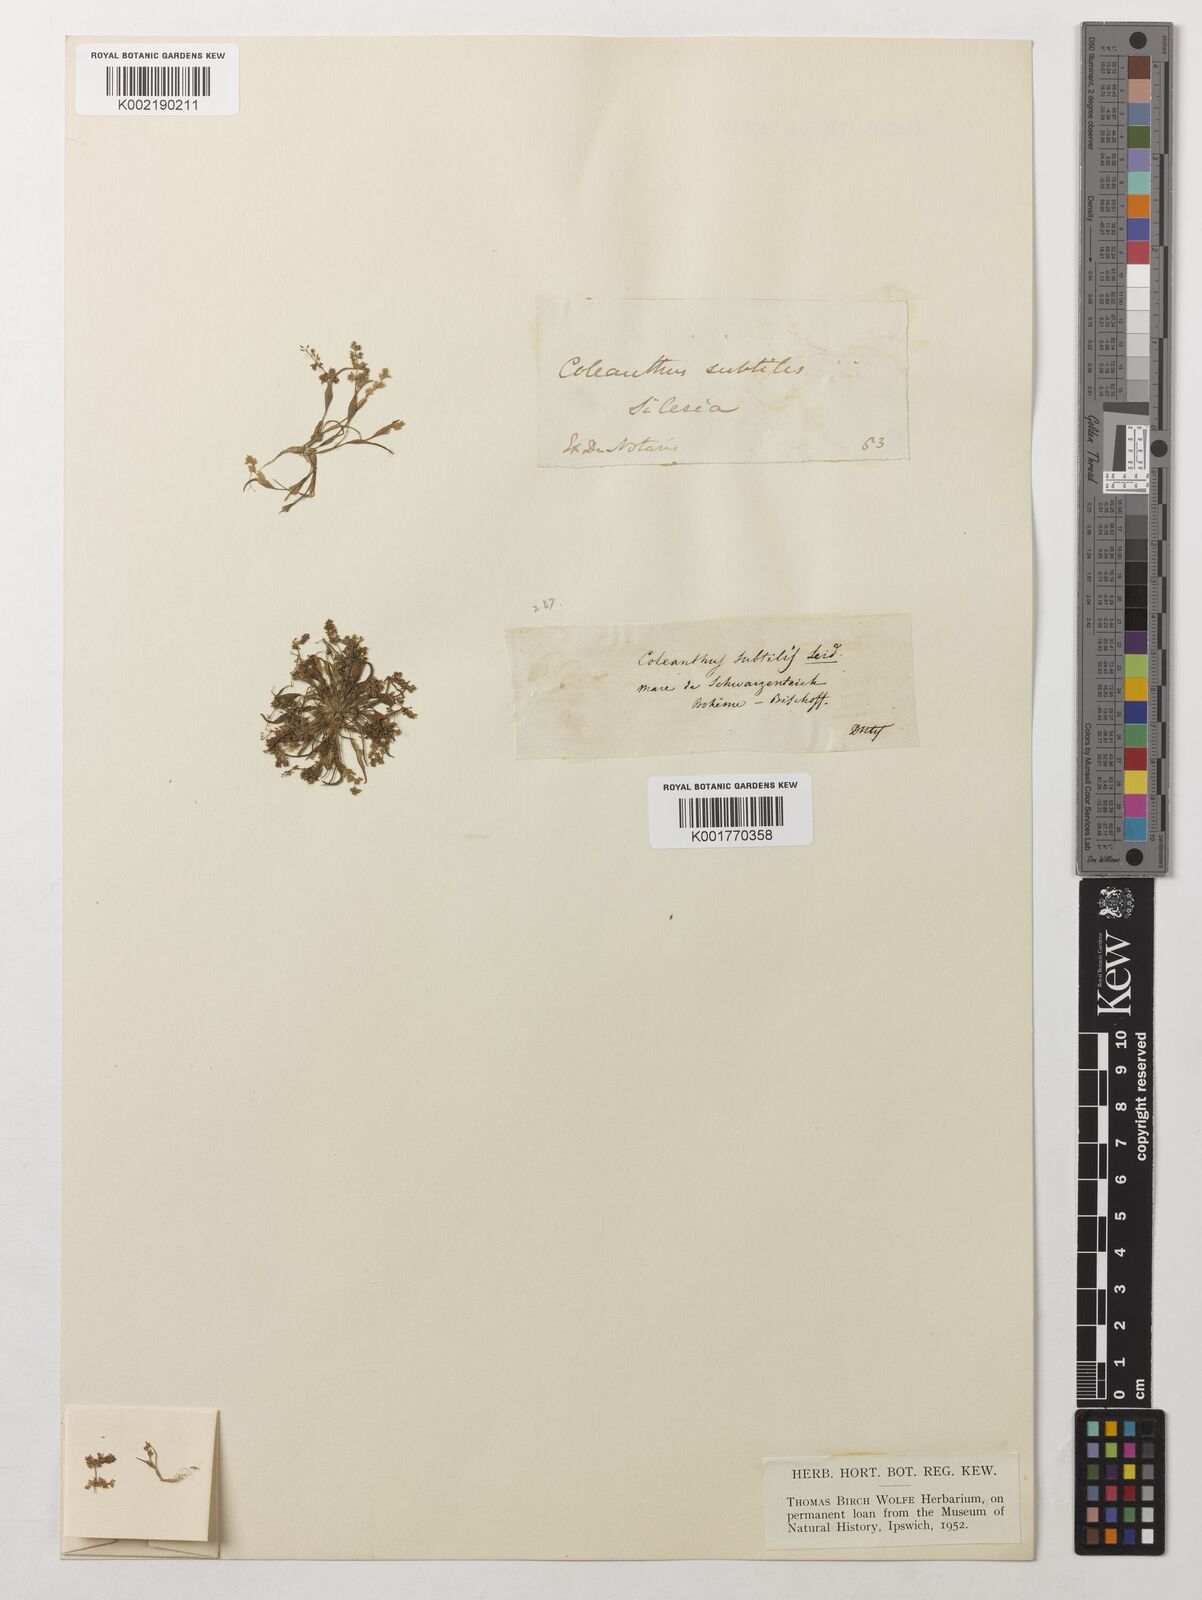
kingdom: Plantae
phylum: Tracheophyta
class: Liliopsida
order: Poales
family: Poaceae
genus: Coleanthus
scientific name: Coleanthus subtilis
